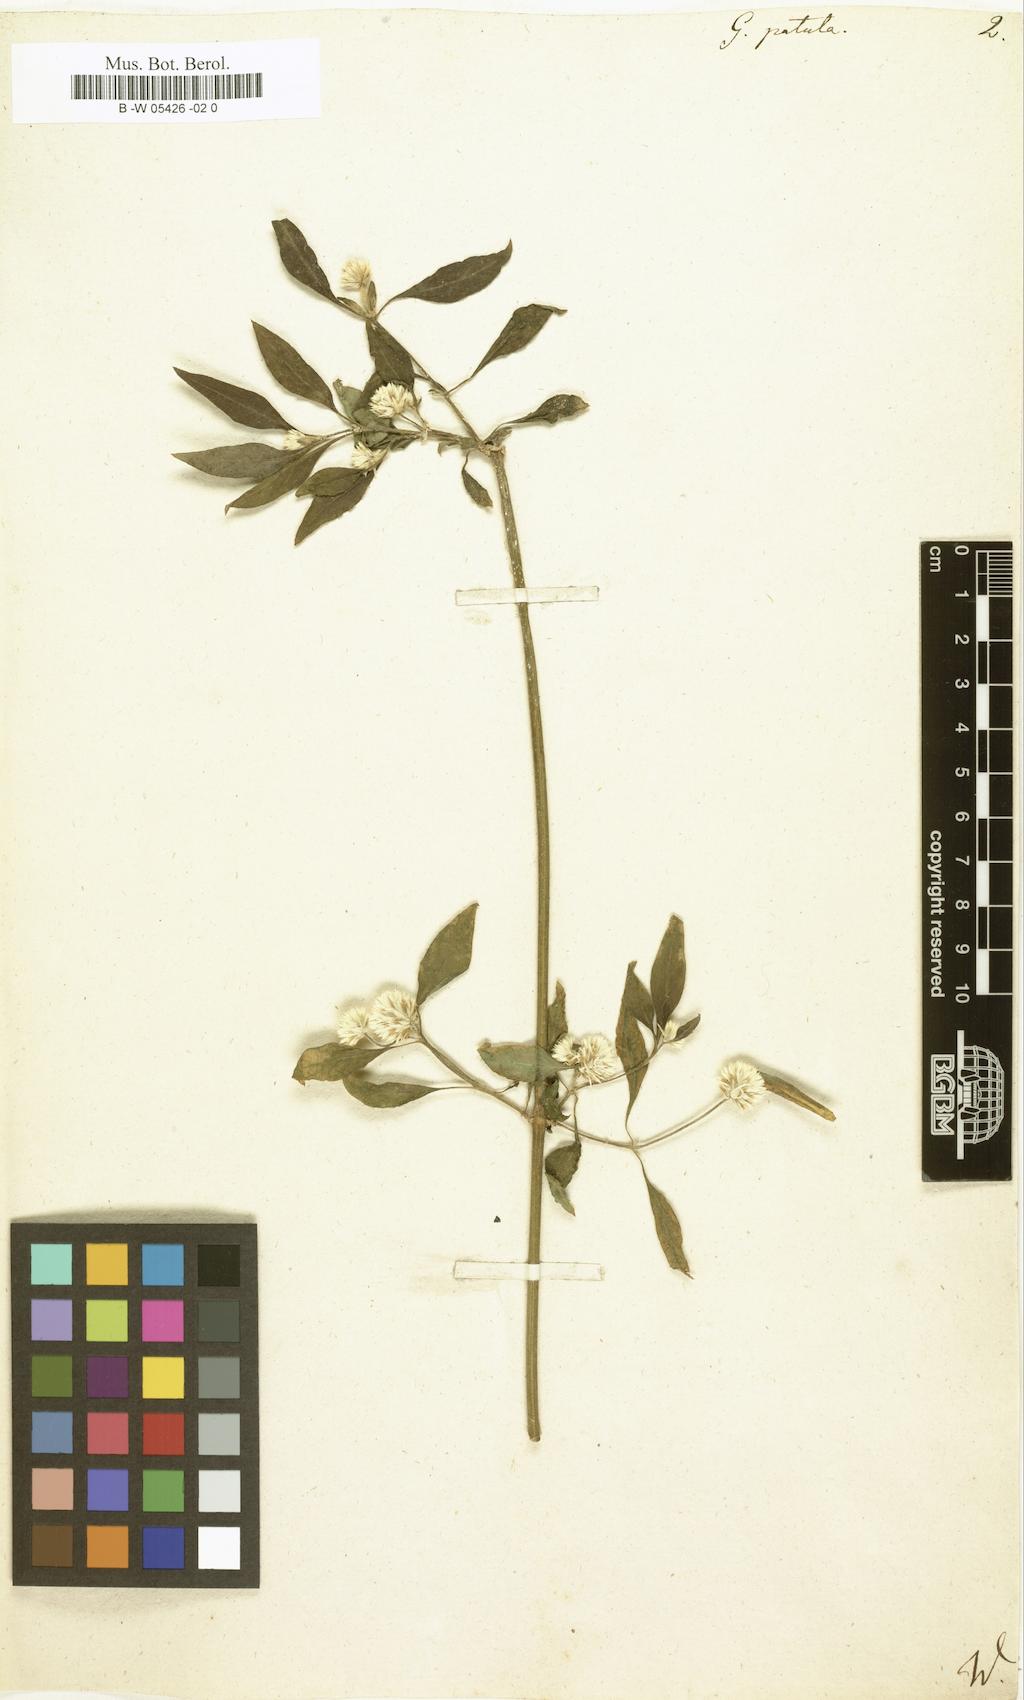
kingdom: Plantae
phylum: Tracheophyta
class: Magnoliopsida
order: Caryophyllales
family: Amaranthaceae
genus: Alternanthera
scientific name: Alternanthera brasiliana
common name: Brazilian joyweed
